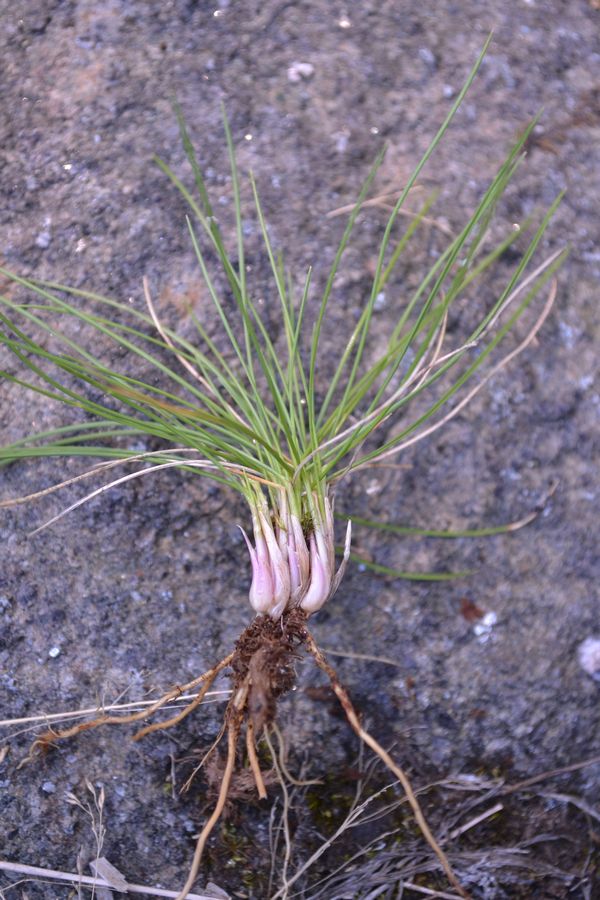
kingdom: Plantae
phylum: Tracheophyta
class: Liliopsida
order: Poales
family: Poaceae
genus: Nardus
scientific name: Nardus stricta
